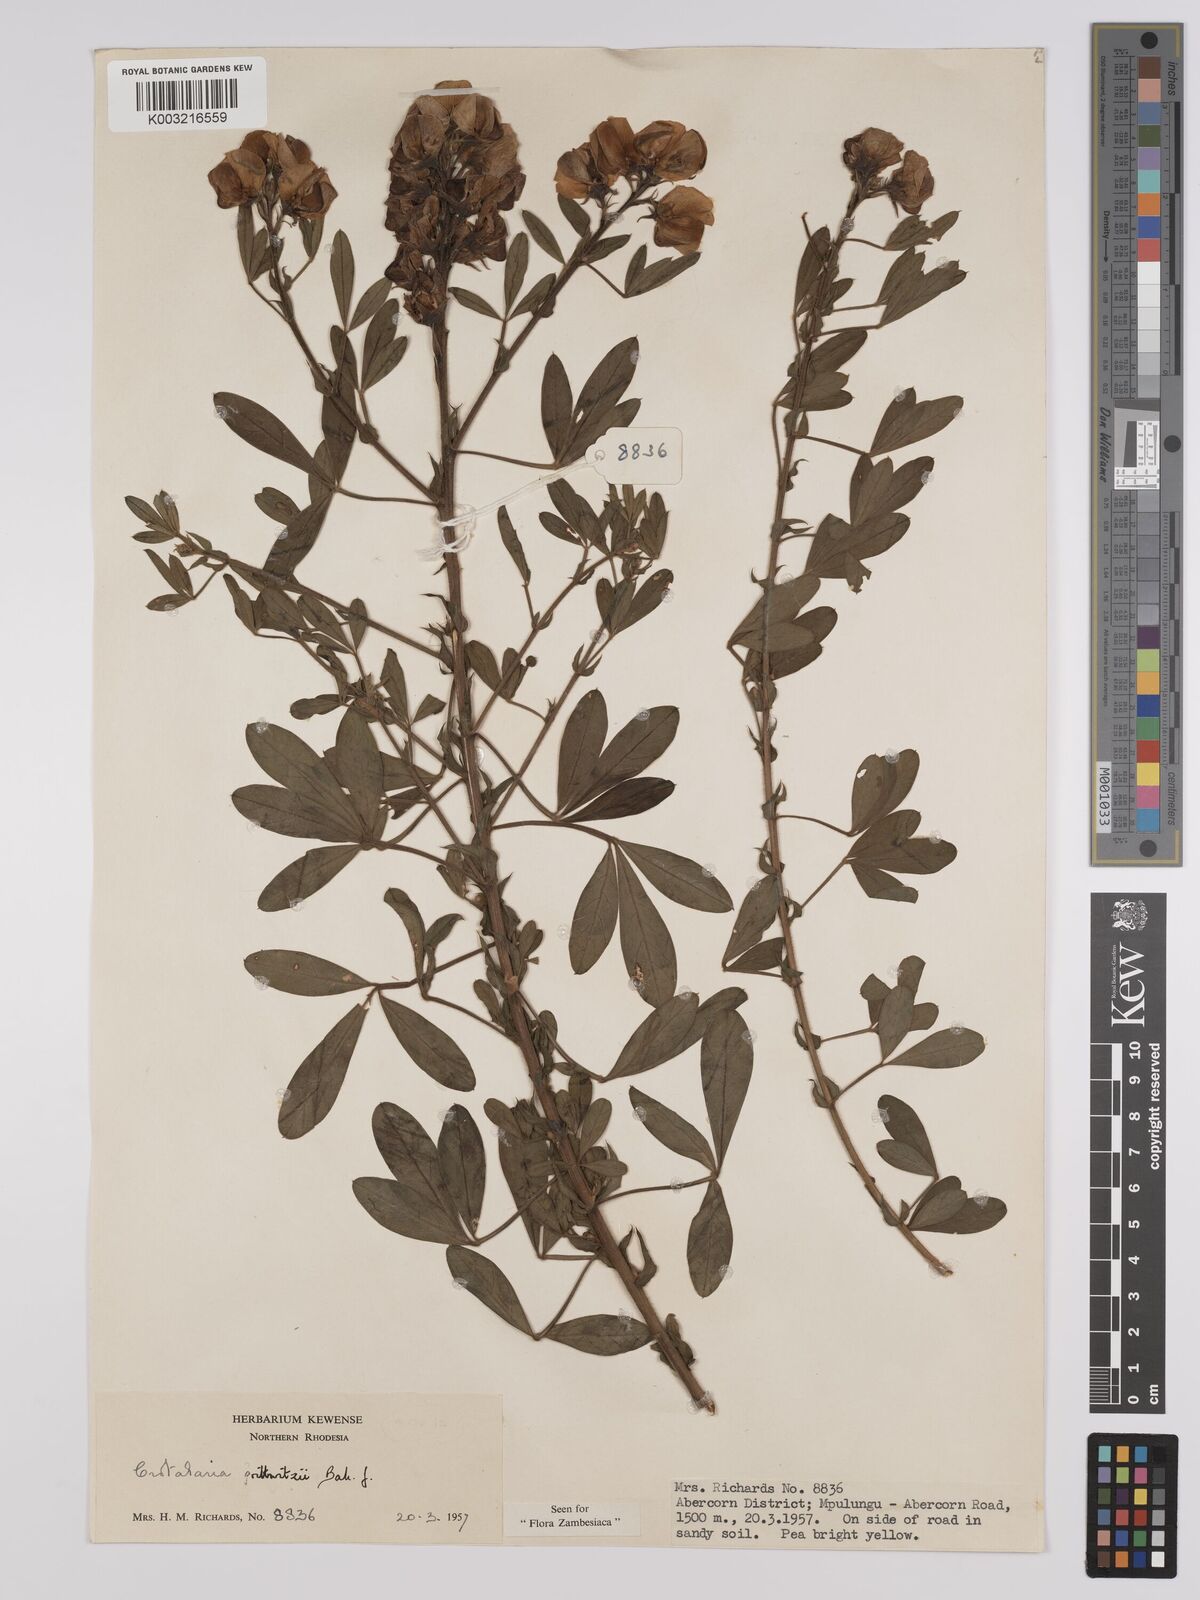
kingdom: Plantae
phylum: Tracheophyta
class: Magnoliopsida
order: Fabales
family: Fabaceae
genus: Crotalaria
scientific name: Crotalaria prittwitzii
